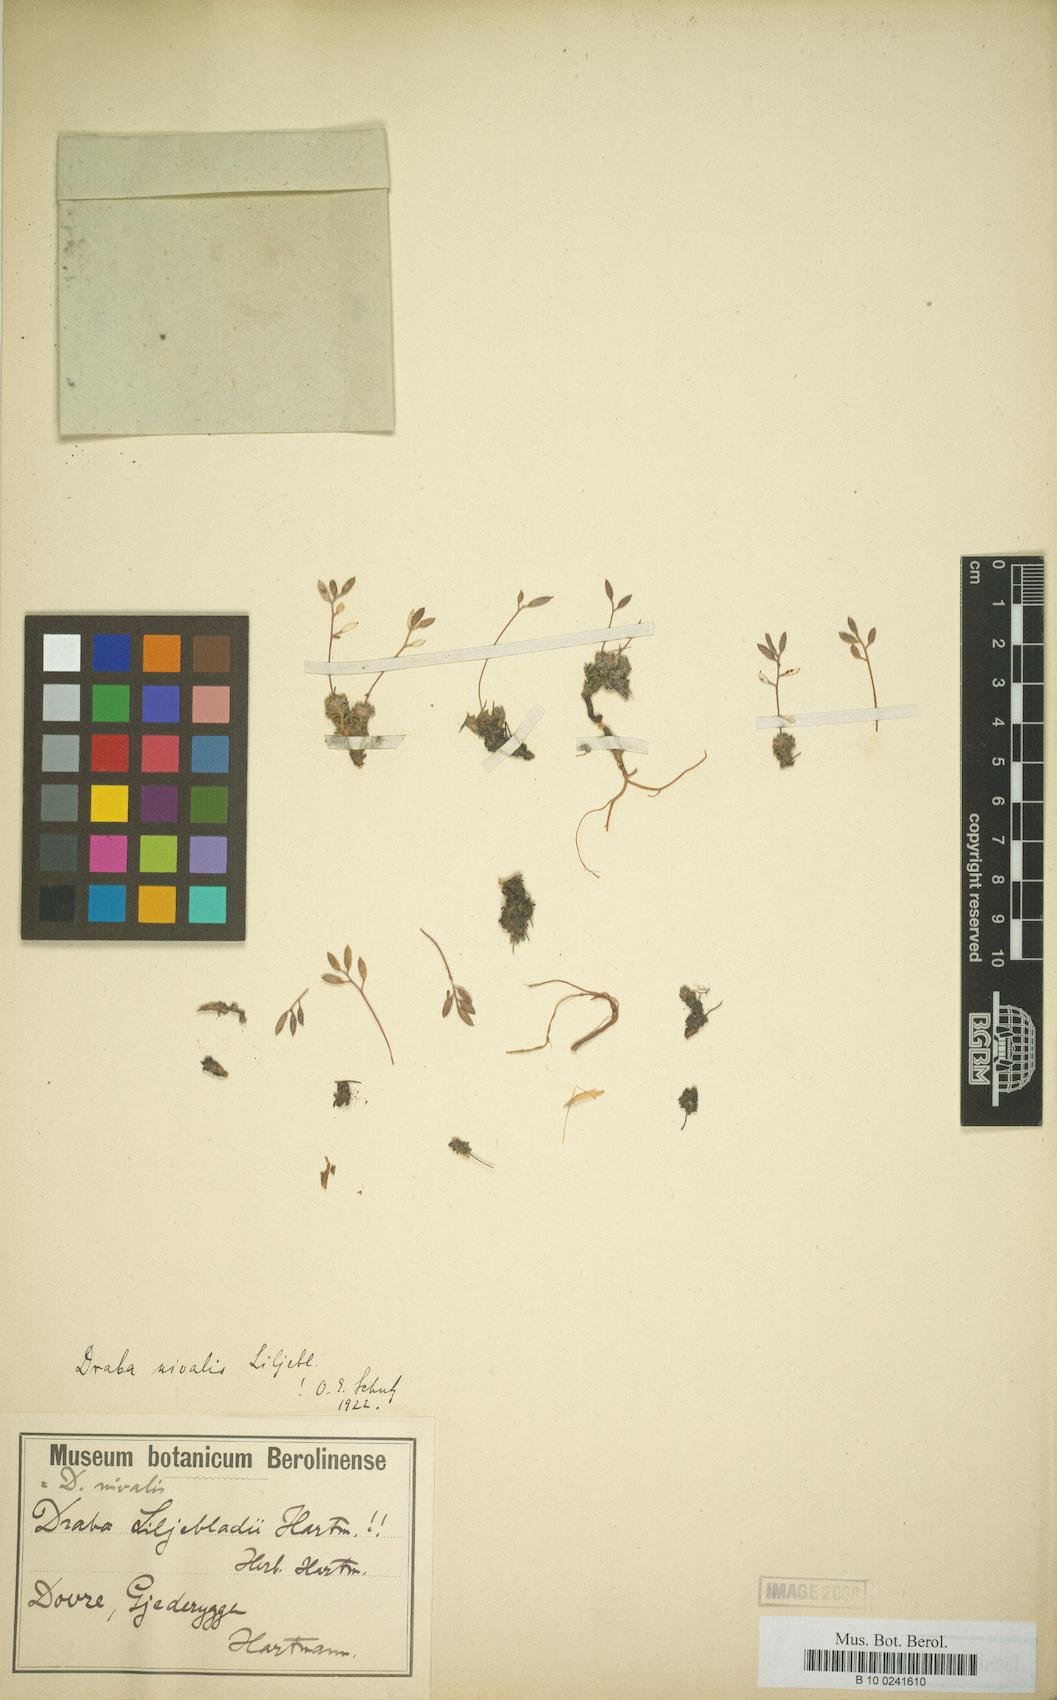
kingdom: Plantae
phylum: Tracheophyta
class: Magnoliopsida
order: Brassicales
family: Brassicaceae
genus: Draba
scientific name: Draba nivalis
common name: Snow draba
